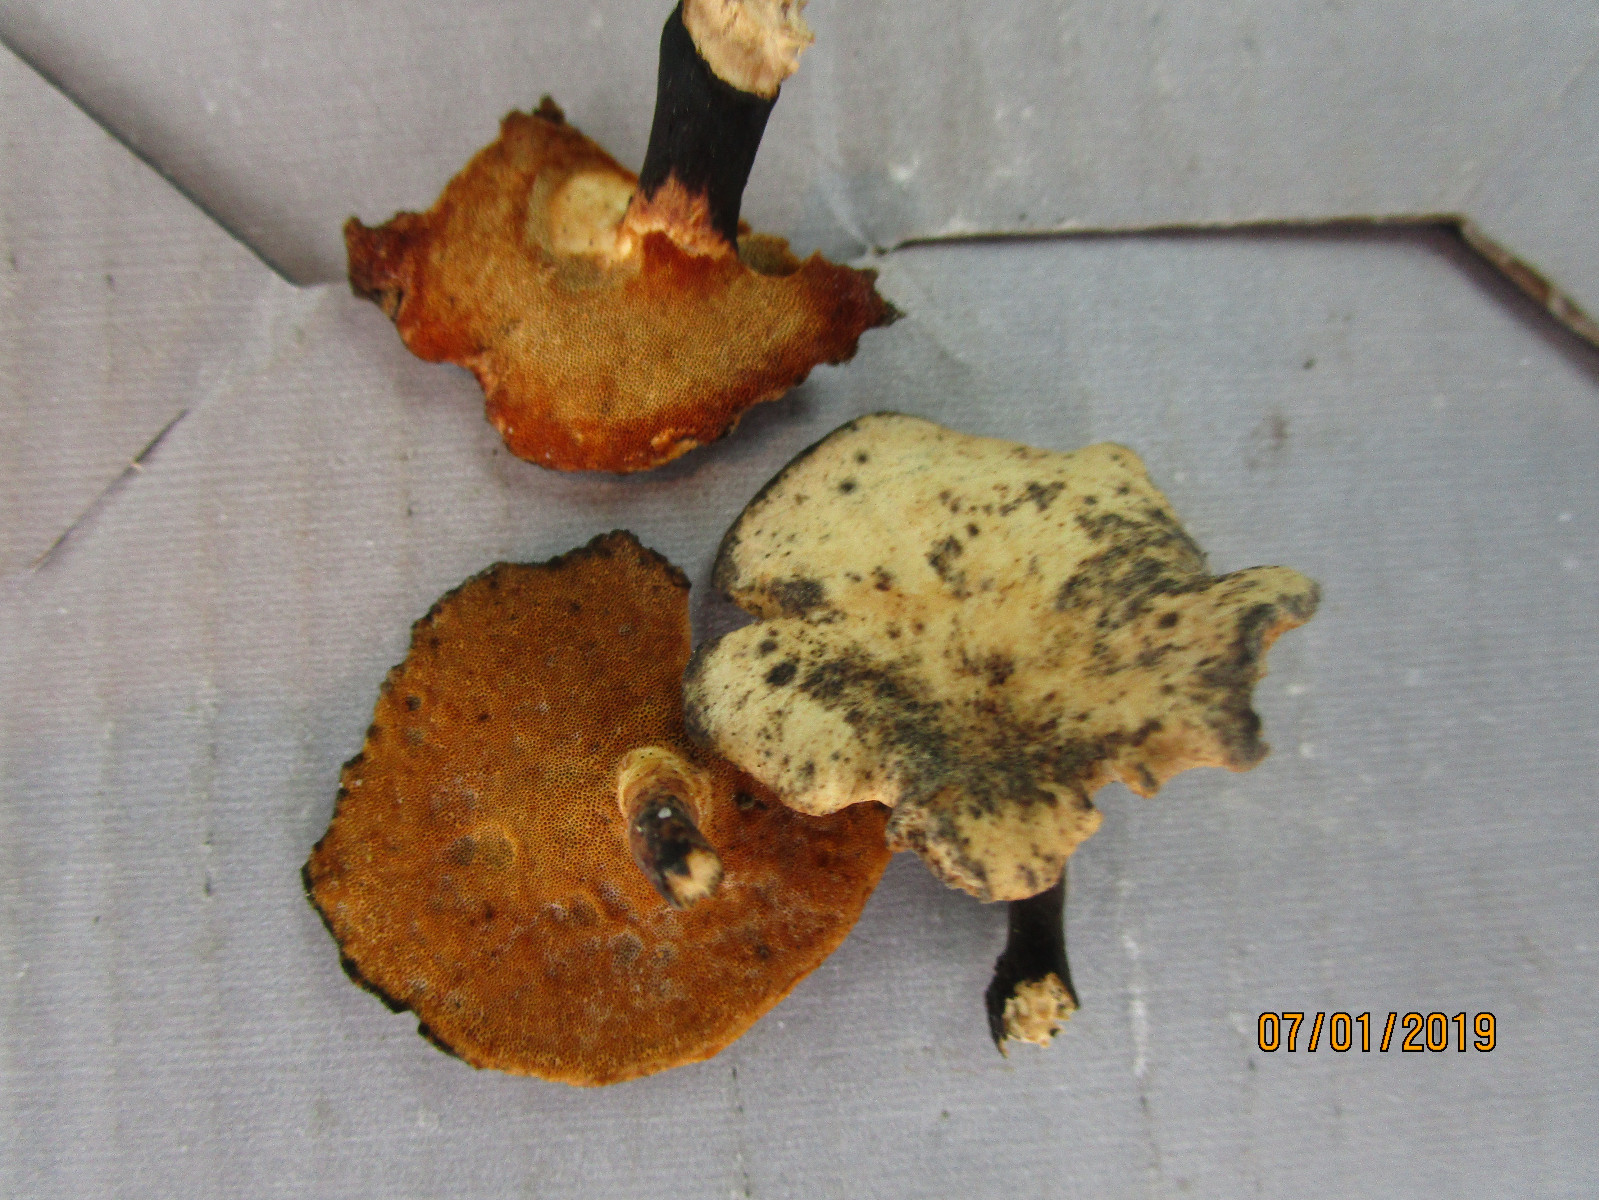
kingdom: Fungi
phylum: Basidiomycota
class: Agaricomycetes
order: Polyporales
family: Polyporaceae
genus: Cerioporus
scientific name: Cerioporus varius
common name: foranderlig stilkporesvamp
